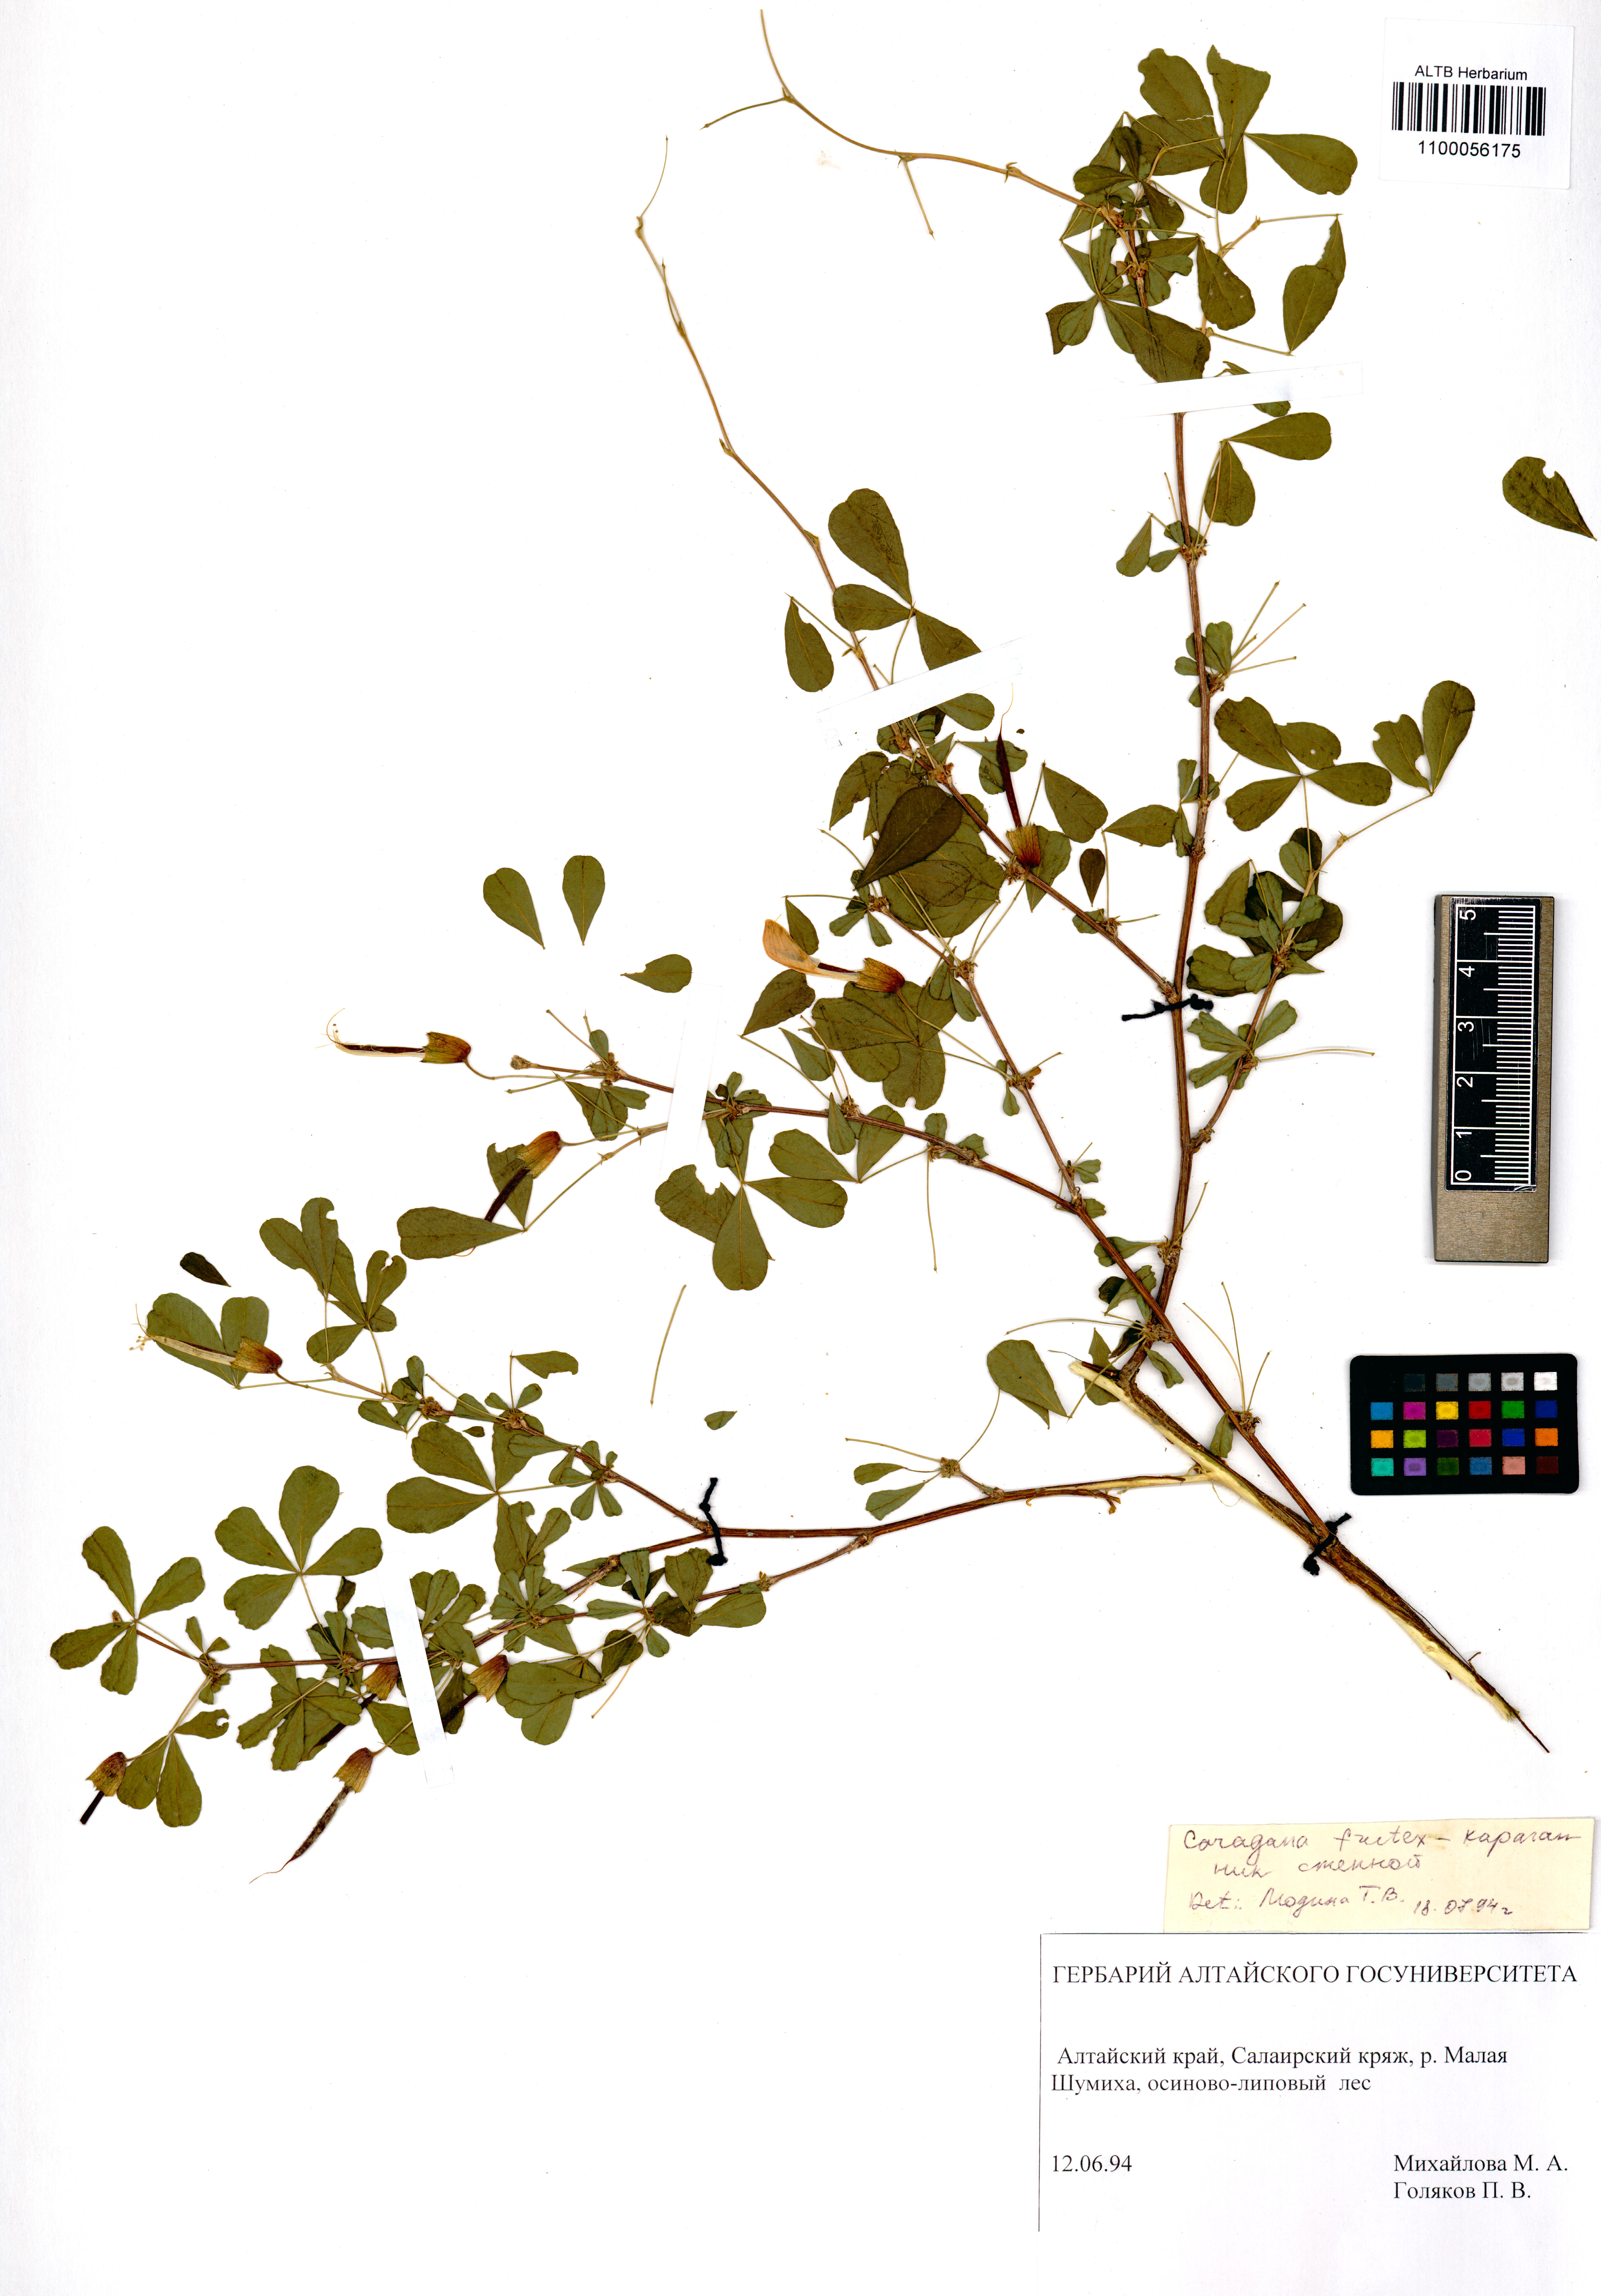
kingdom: Plantae
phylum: Tracheophyta
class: Magnoliopsida
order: Fabales
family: Fabaceae
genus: Caragana
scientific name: Caragana frutex
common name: Russian peashrub
